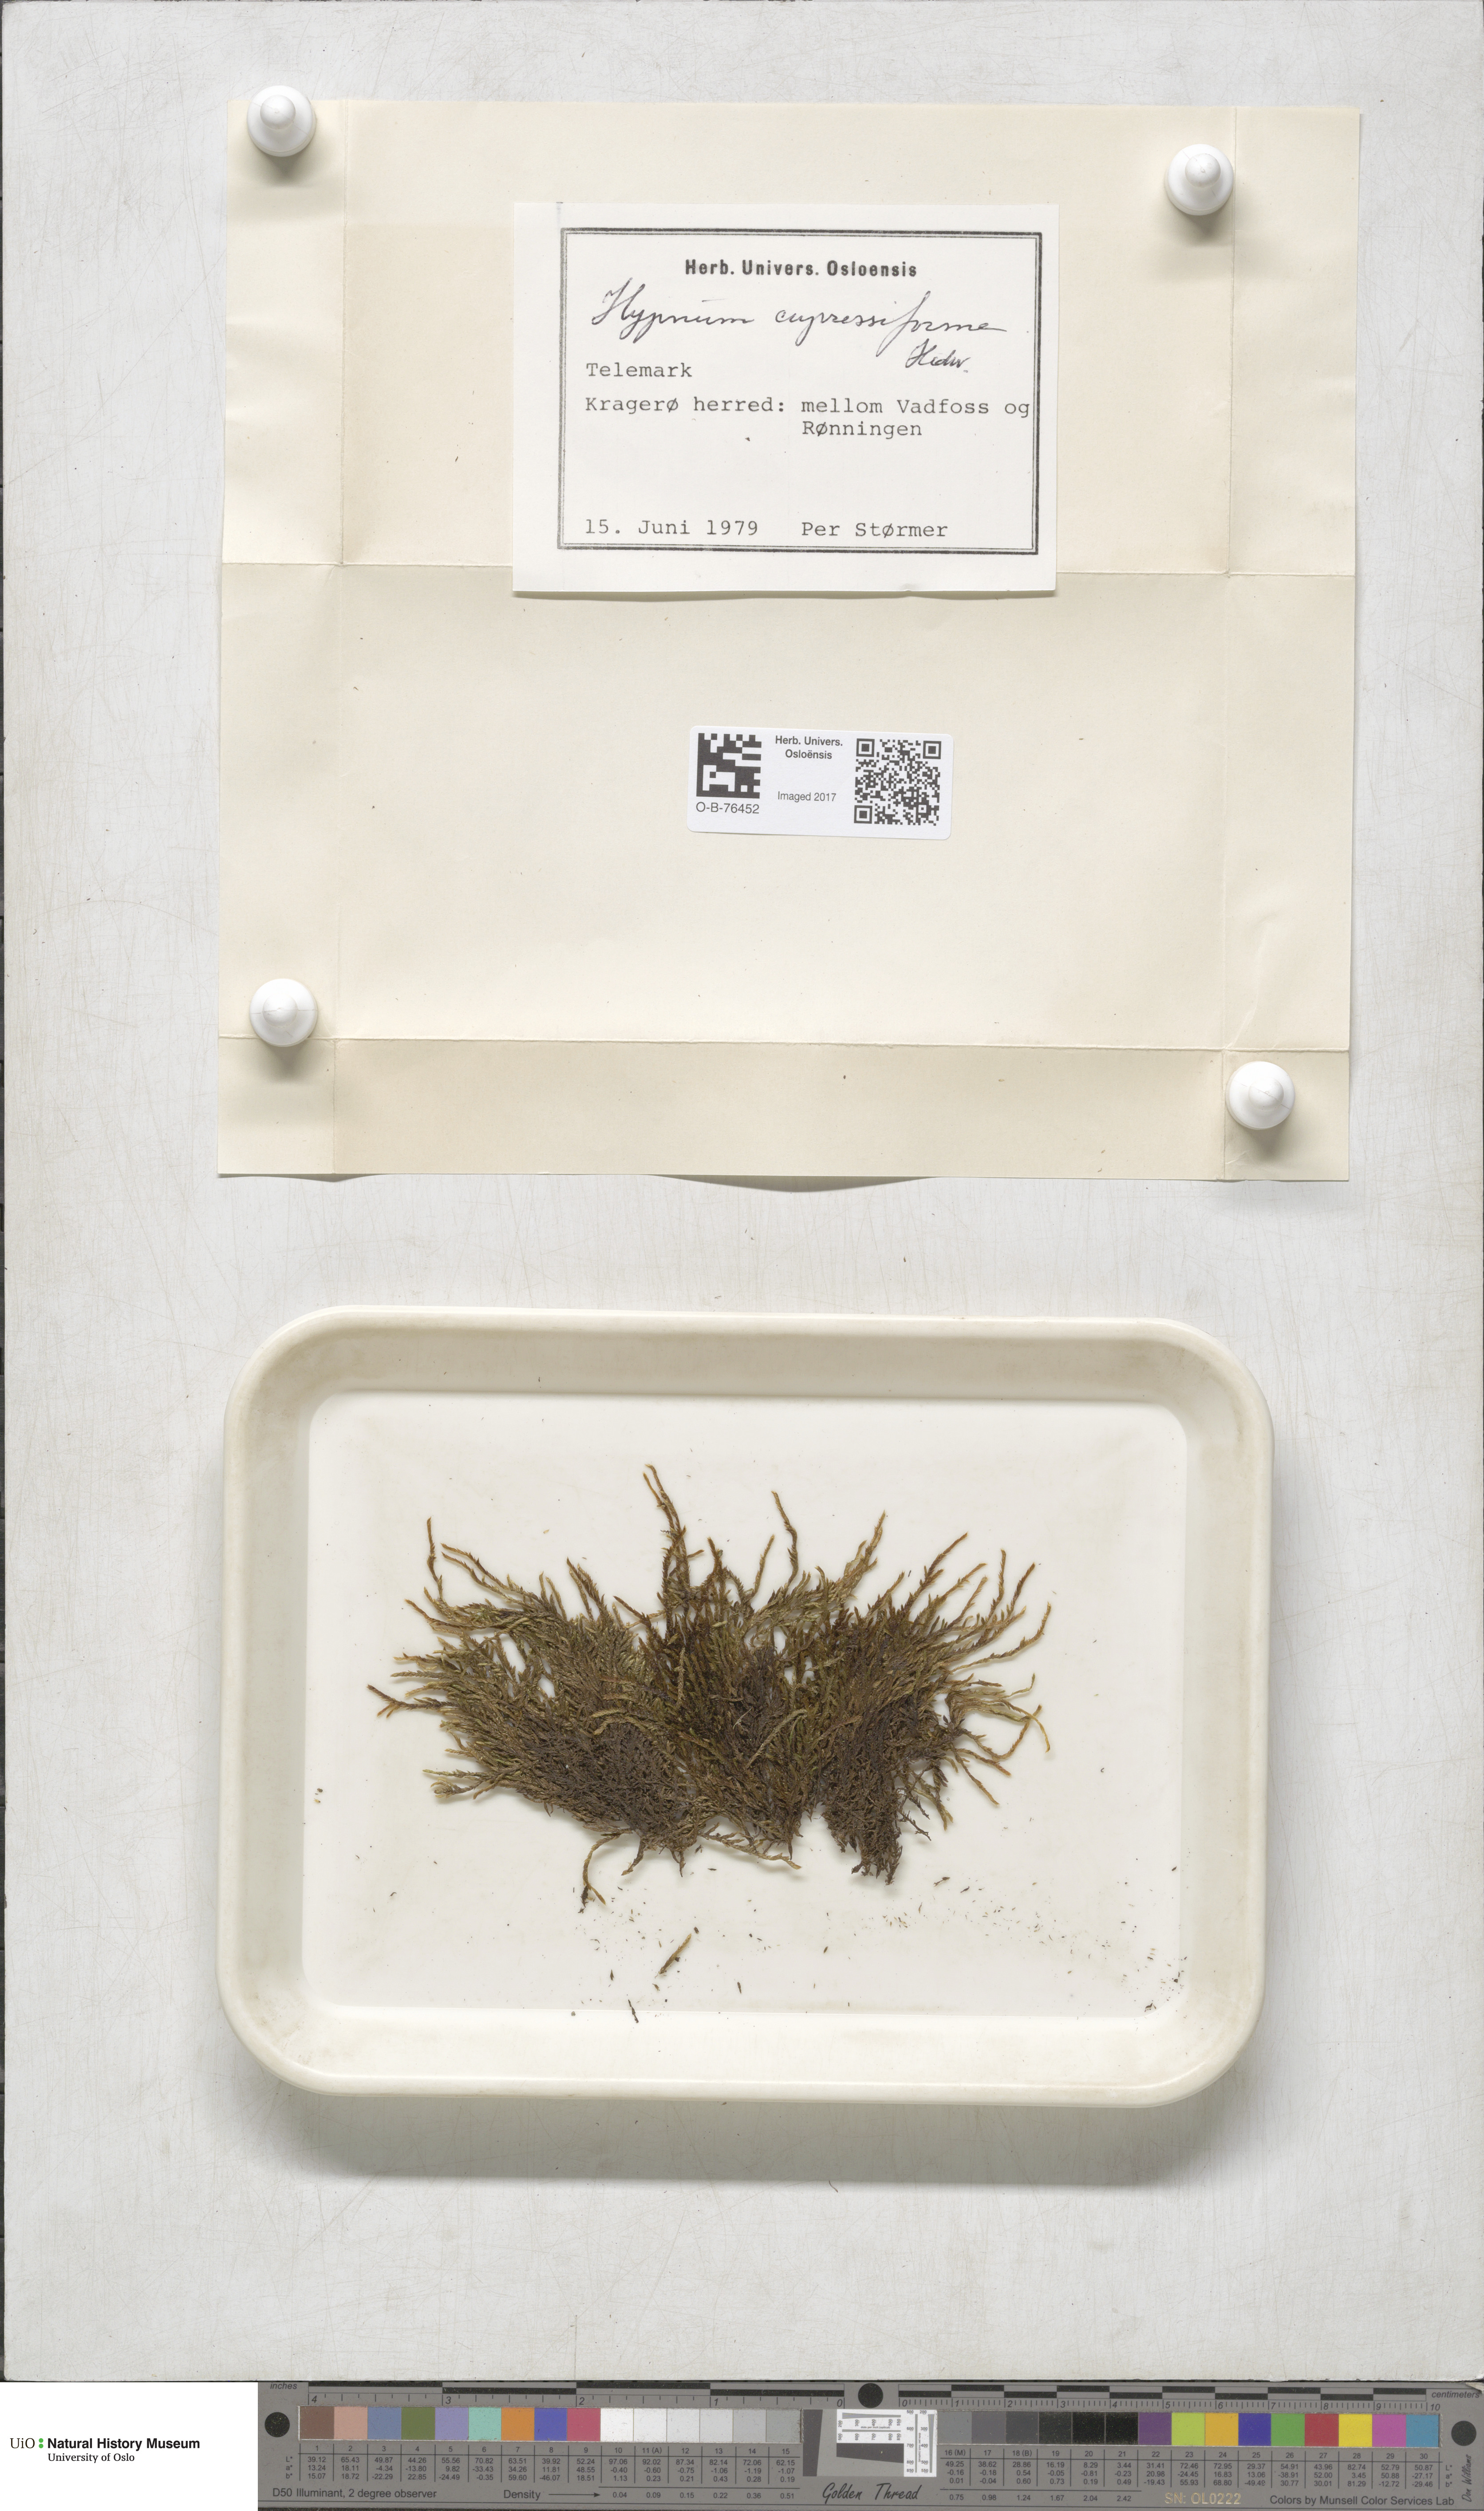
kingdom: Plantae
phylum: Bryophyta
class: Bryopsida
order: Hypnales
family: Hypnaceae
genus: Hypnum
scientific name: Hypnum cupressiforme
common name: Cypress-leaved plait-moss
